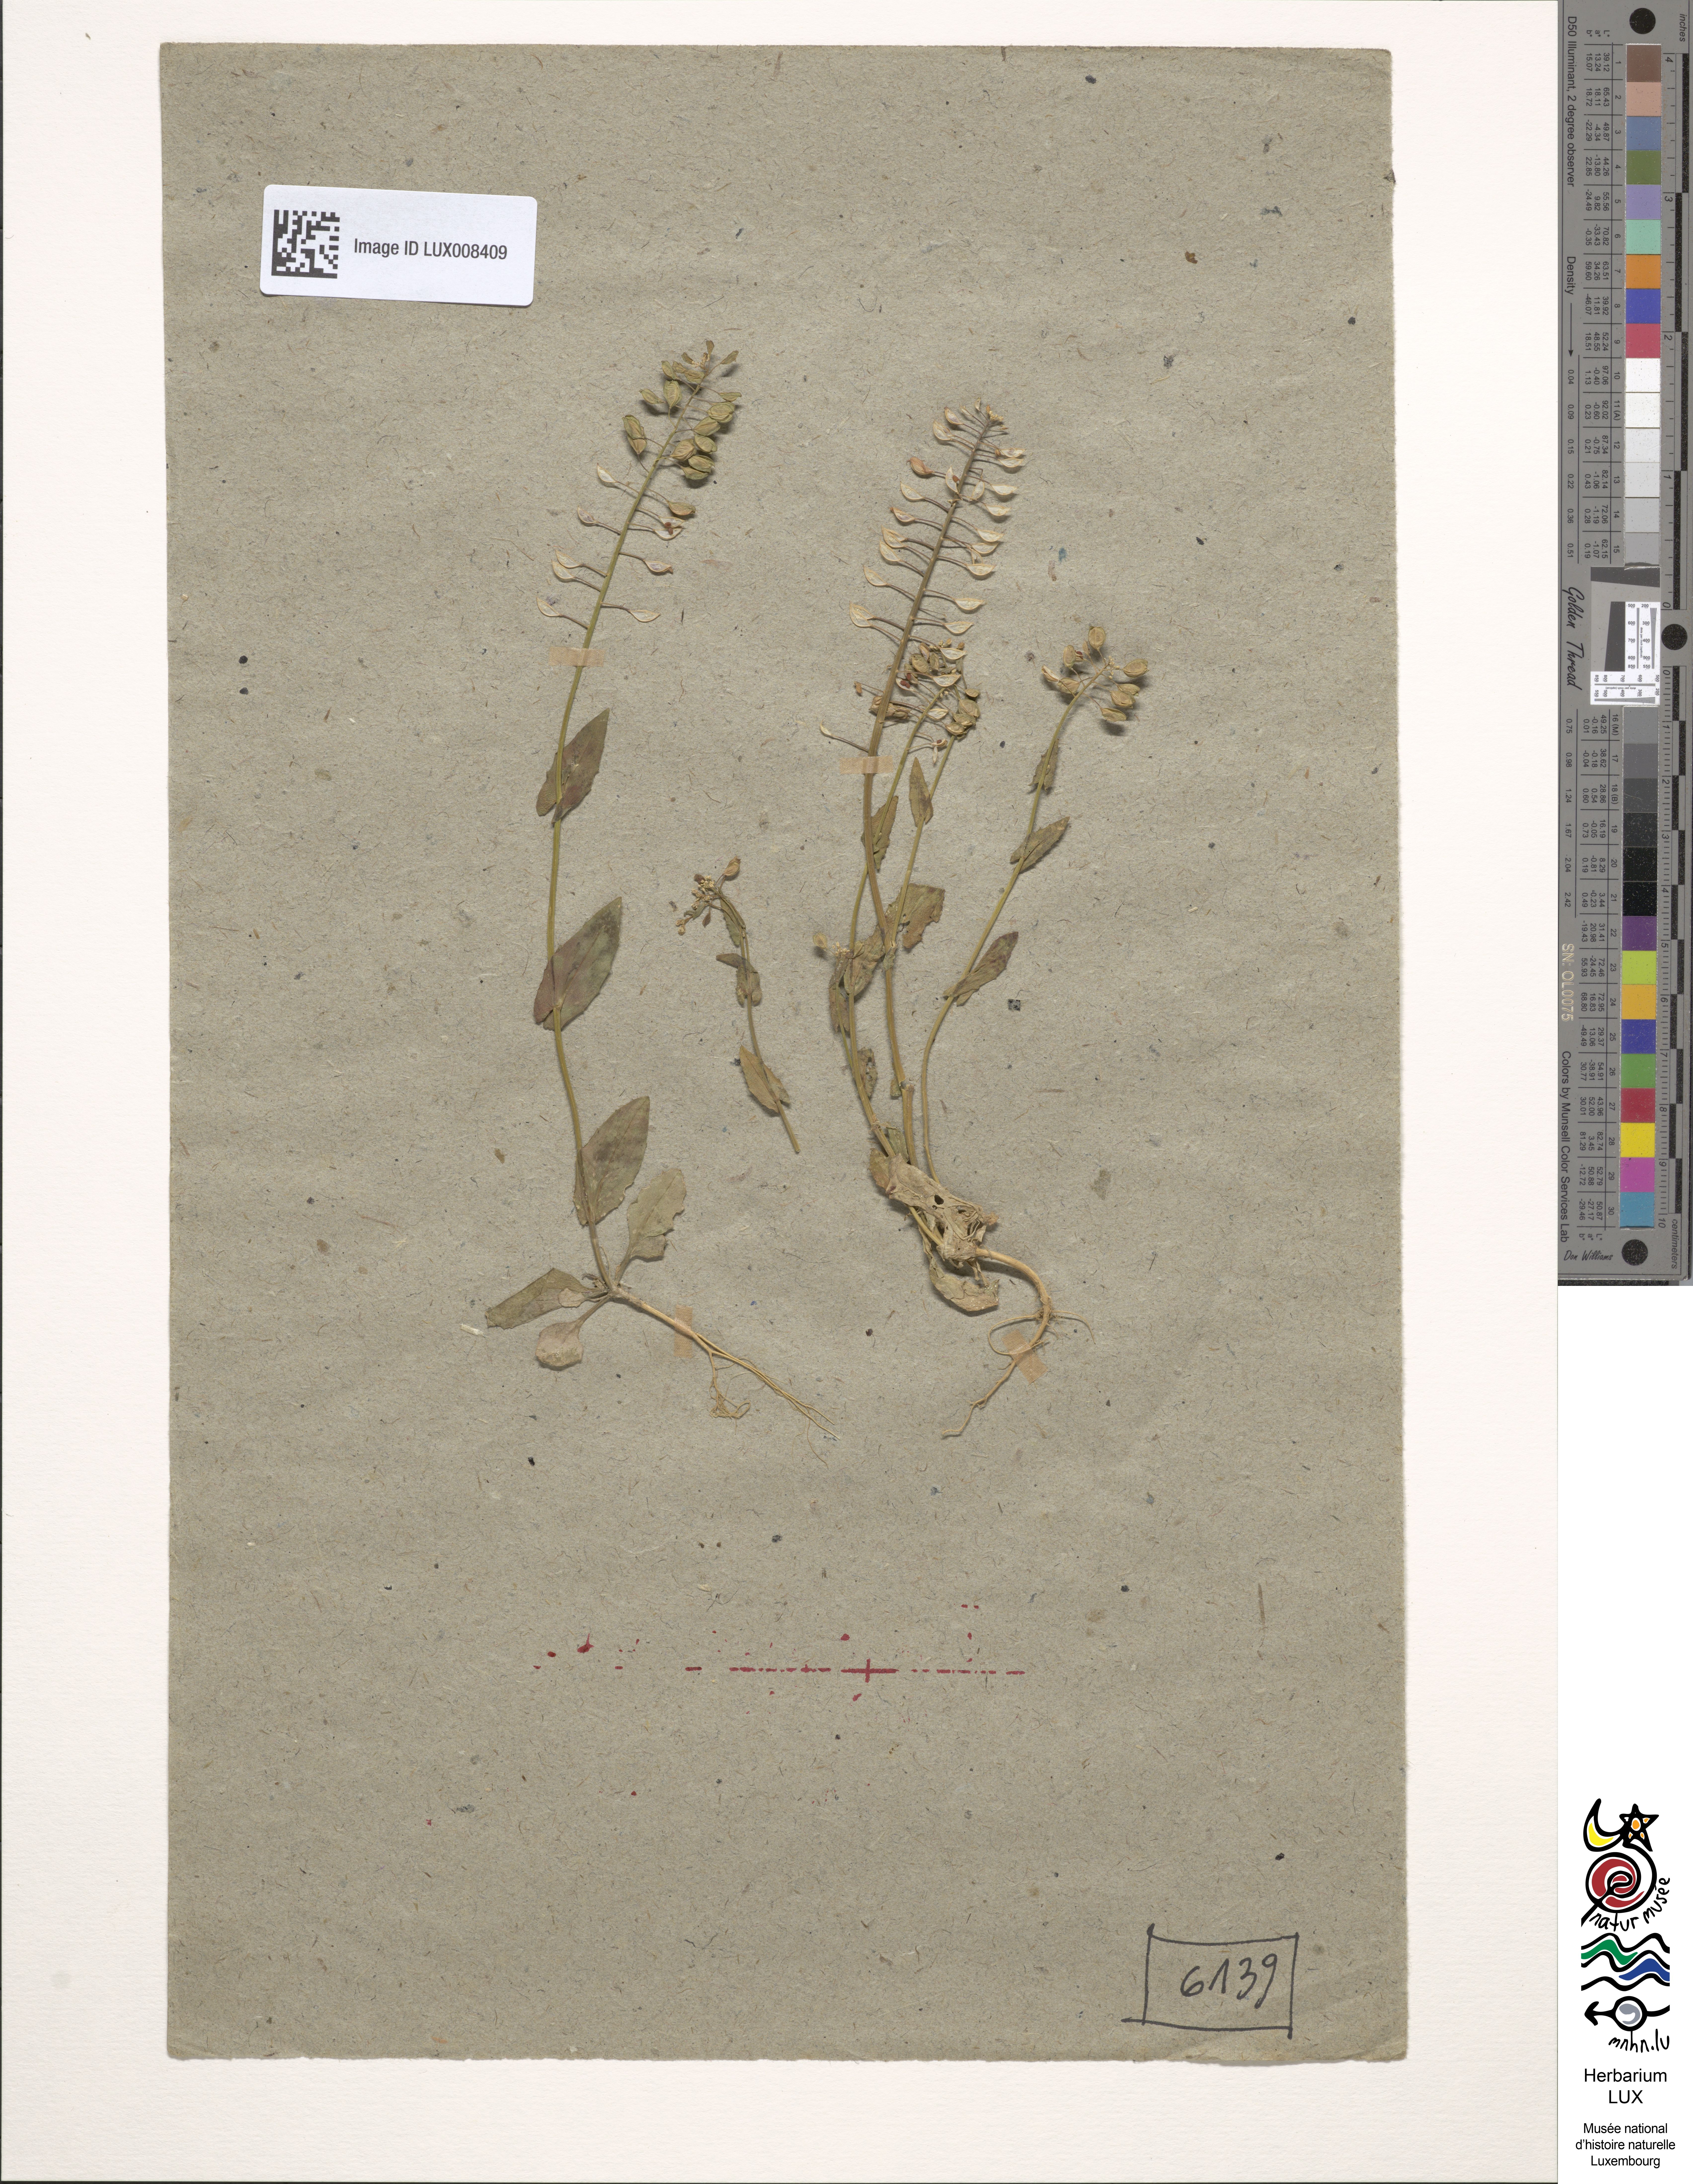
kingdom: Plantae
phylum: Tracheophyta
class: Magnoliopsida
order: Brassicales
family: Brassicaceae
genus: Noccaea
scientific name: Noccaea perfoliata
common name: Perfoliate pennycress
